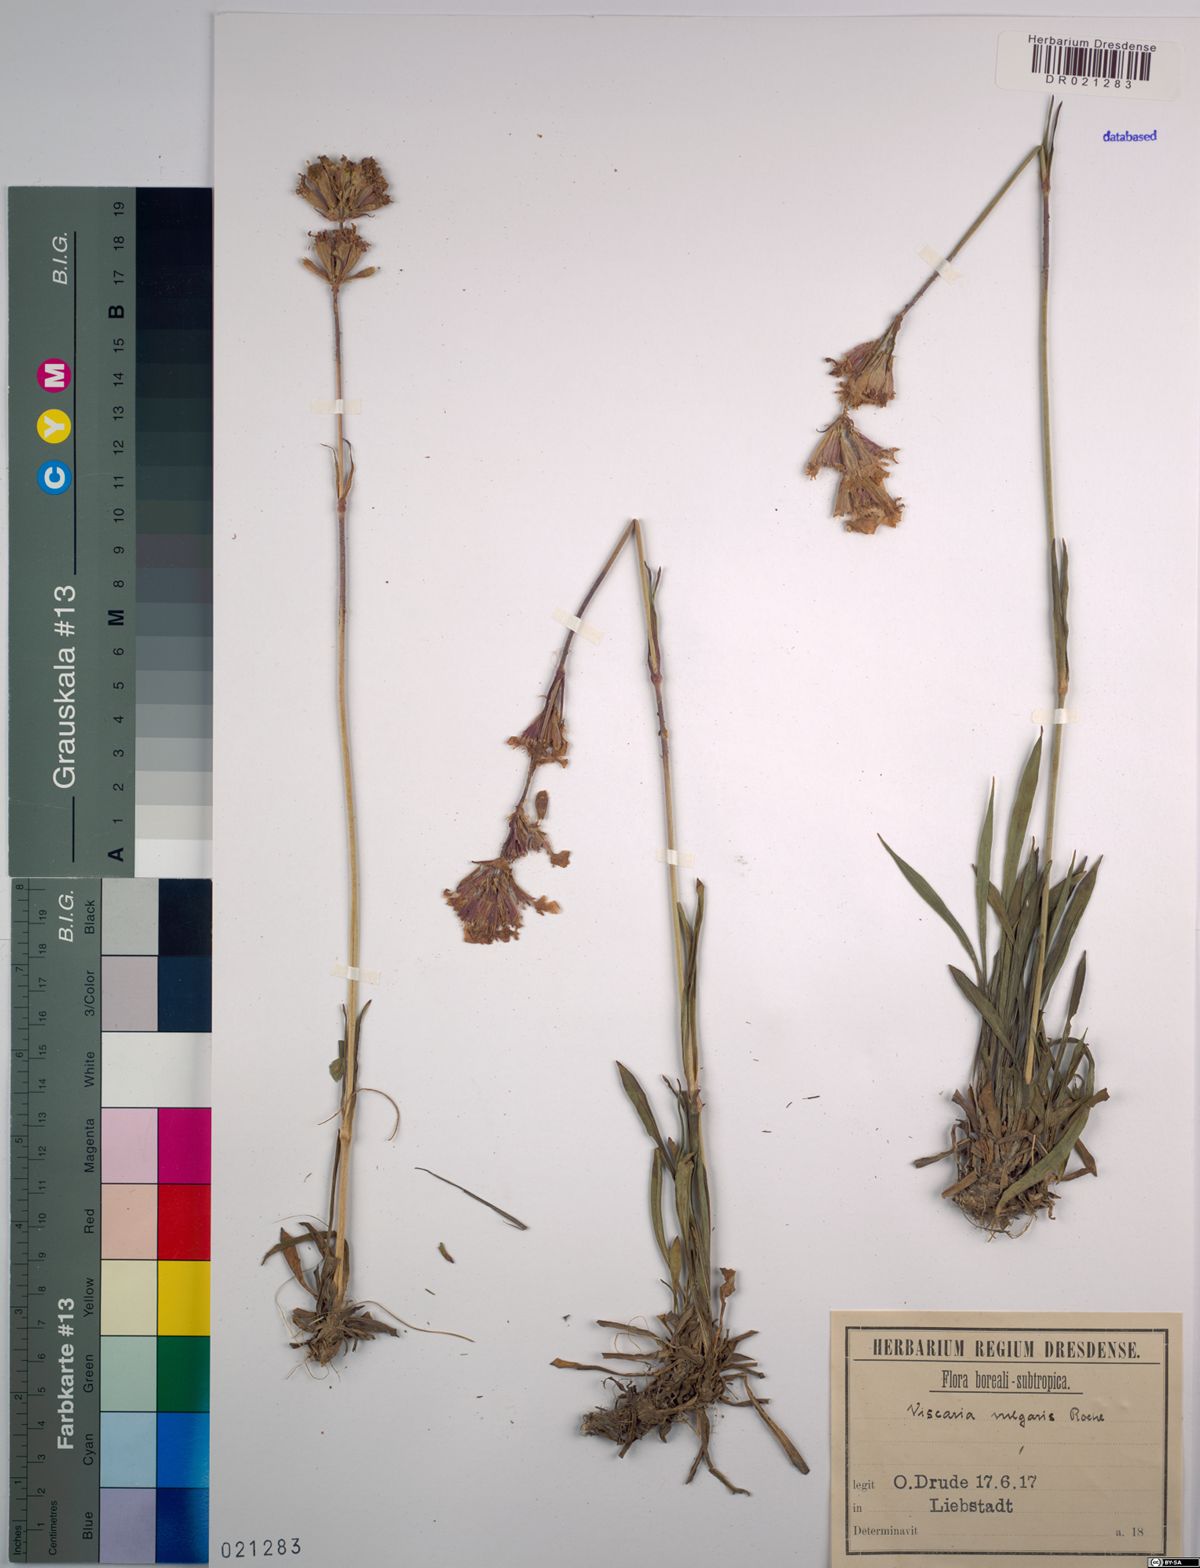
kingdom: Plantae
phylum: Tracheophyta
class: Magnoliopsida
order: Caryophyllales
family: Caryophyllaceae
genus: Viscaria
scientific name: Viscaria vulgaris
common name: Clammy campion
